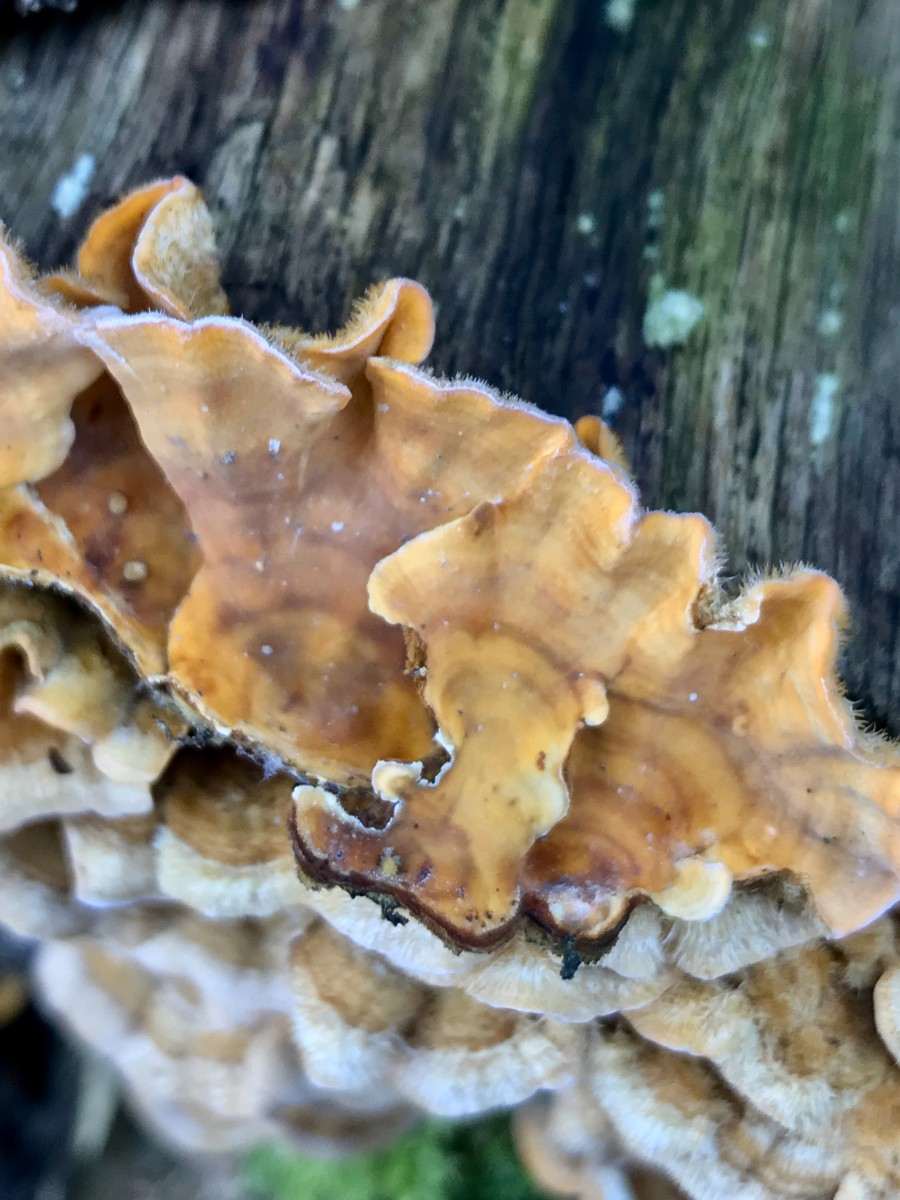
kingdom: Fungi
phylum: Basidiomycota
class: Agaricomycetes
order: Russulales
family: Stereaceae
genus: Stereum
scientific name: Stereum hirsutum
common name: håret lædersvamp
